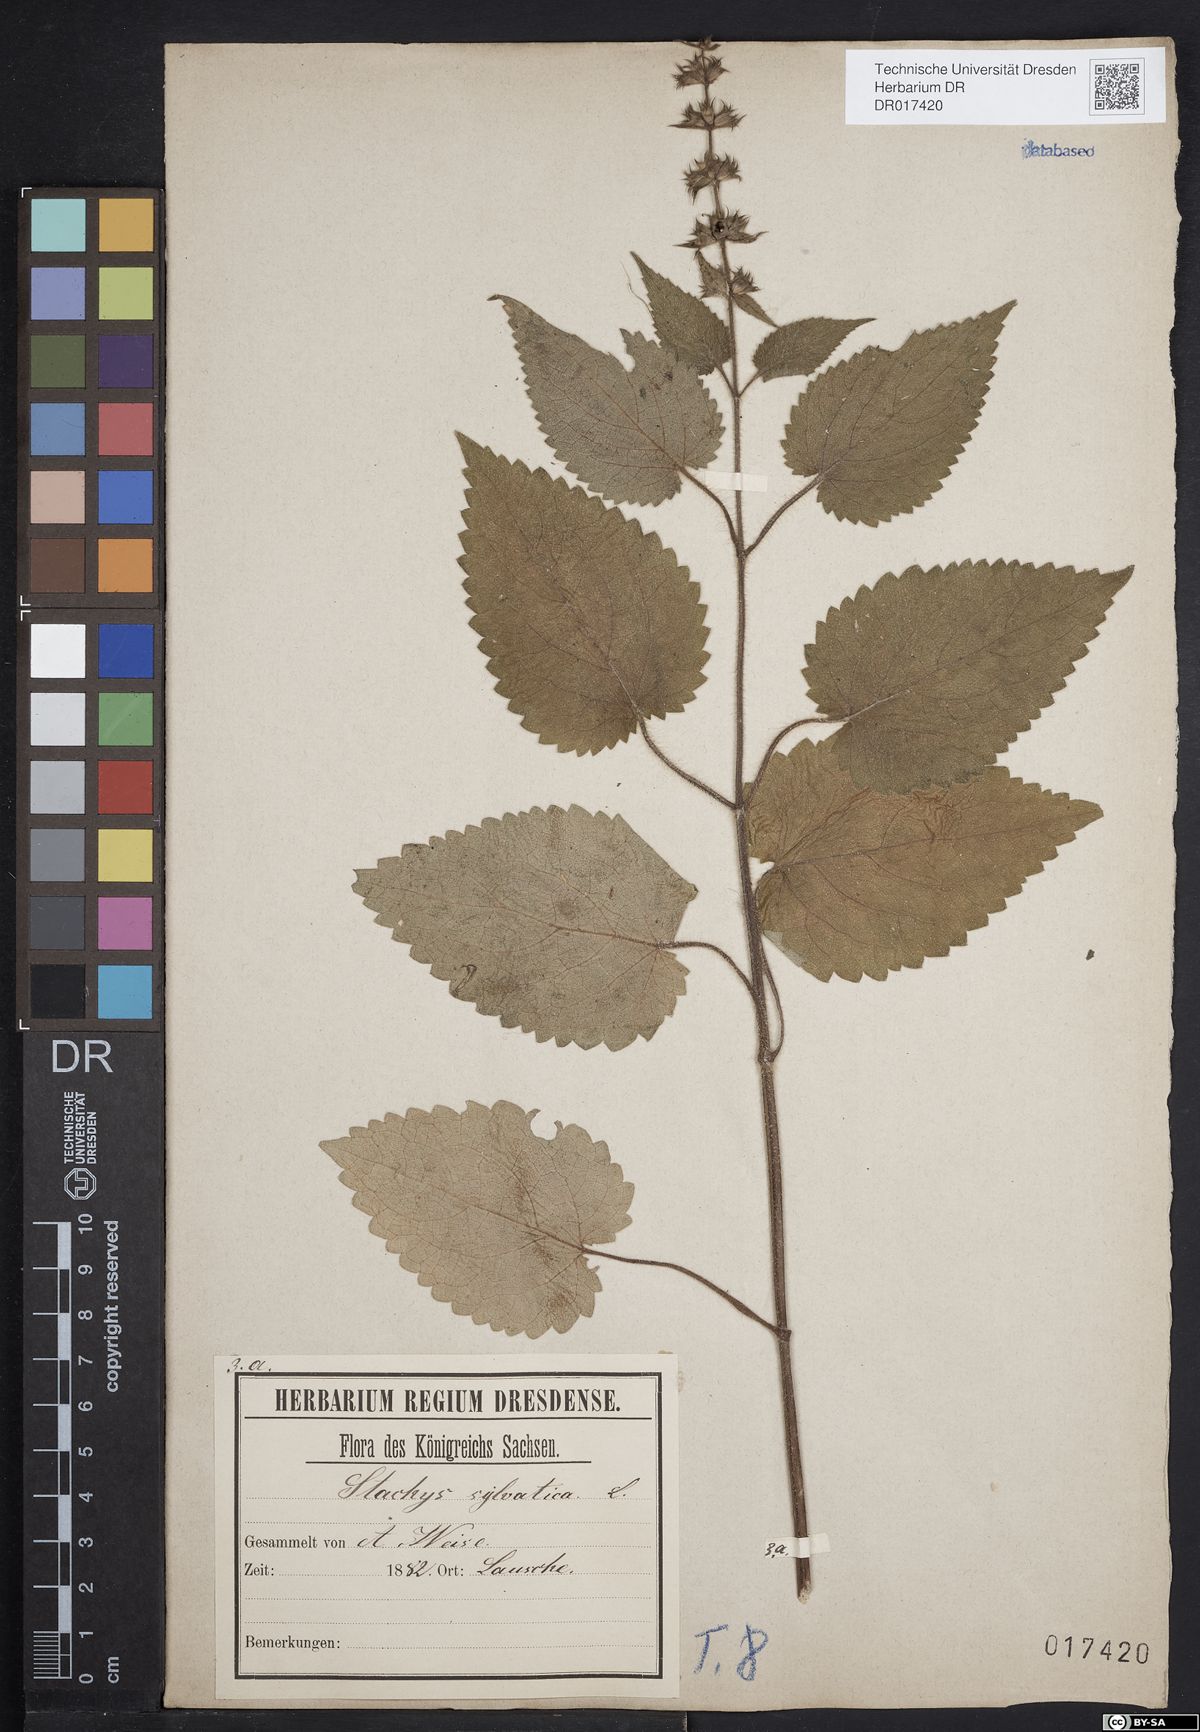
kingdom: Plantae
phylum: Tracheophyta
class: Magnoliopsida
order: Lamiales
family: Lamiaceae
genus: Stachys
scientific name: Stachys sylvatica
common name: Hedge woundwort
